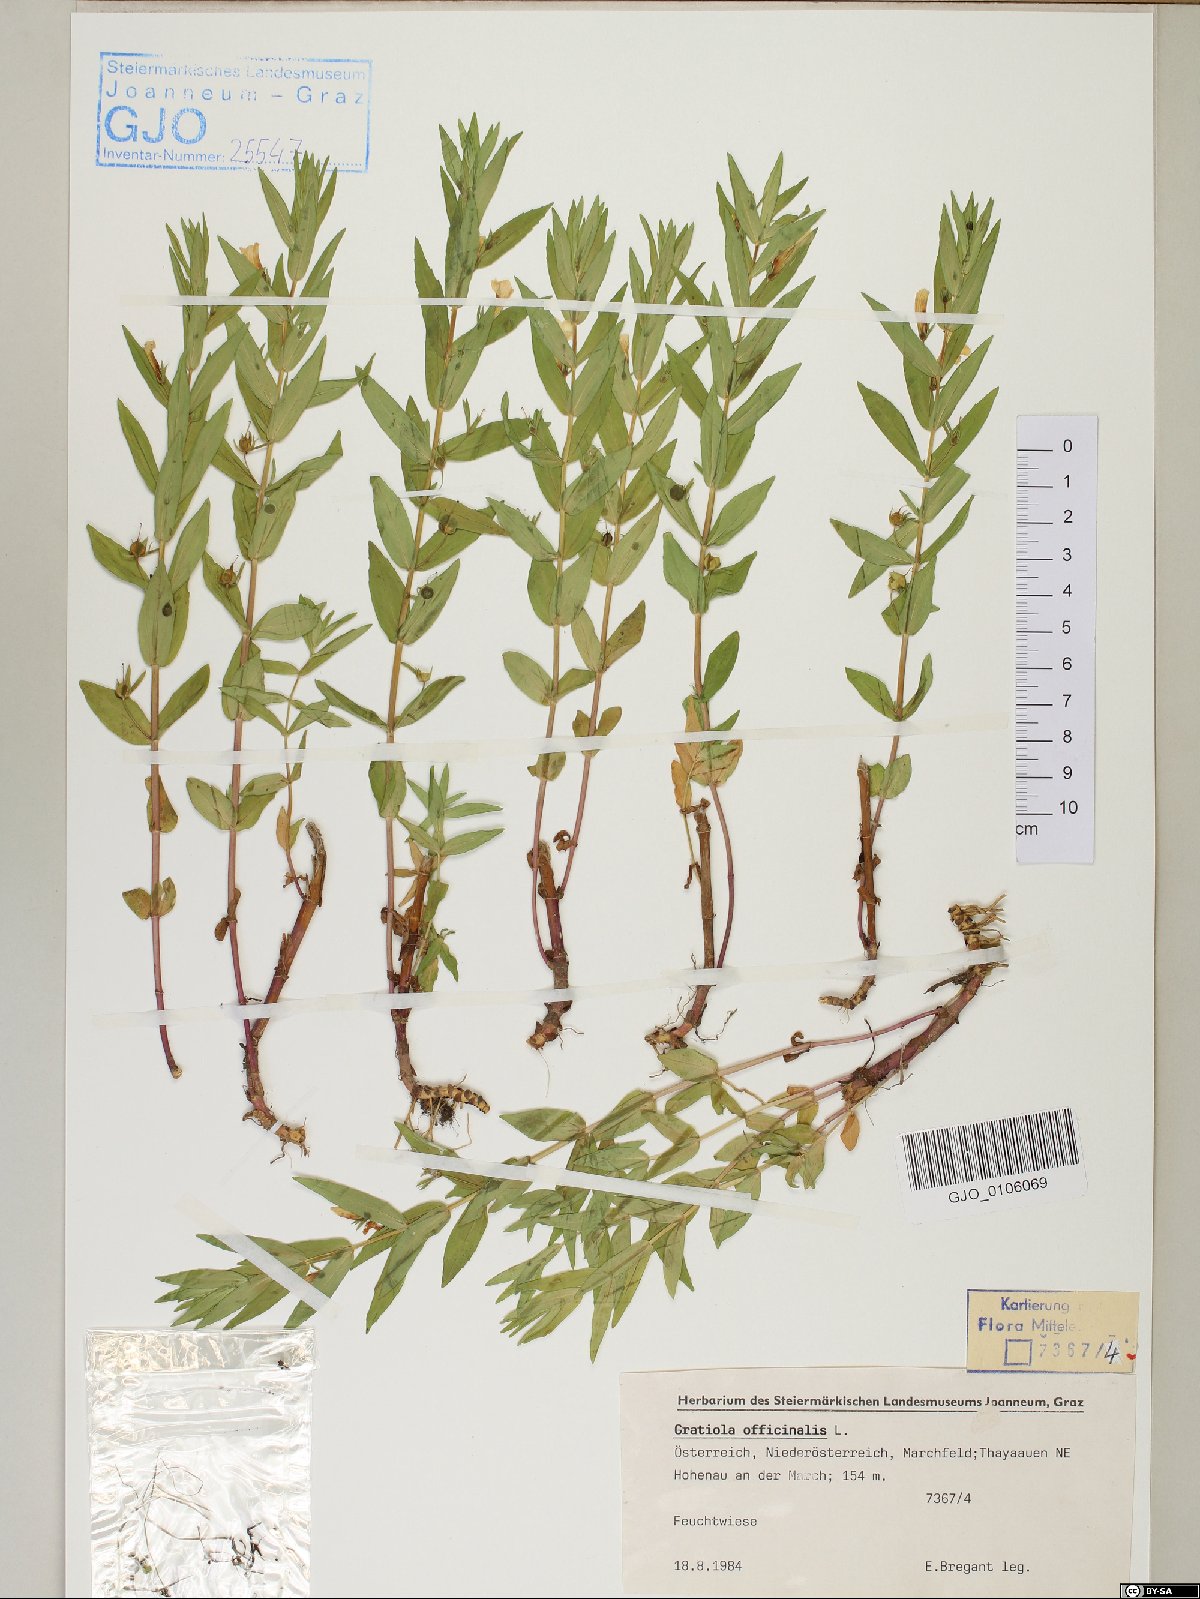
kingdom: Plantae
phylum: Tracheophyta
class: Magnoliopsida
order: Lamiales
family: Plantaginaceae
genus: Gratiola
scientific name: Gratiola officinalis
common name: Gratiola
